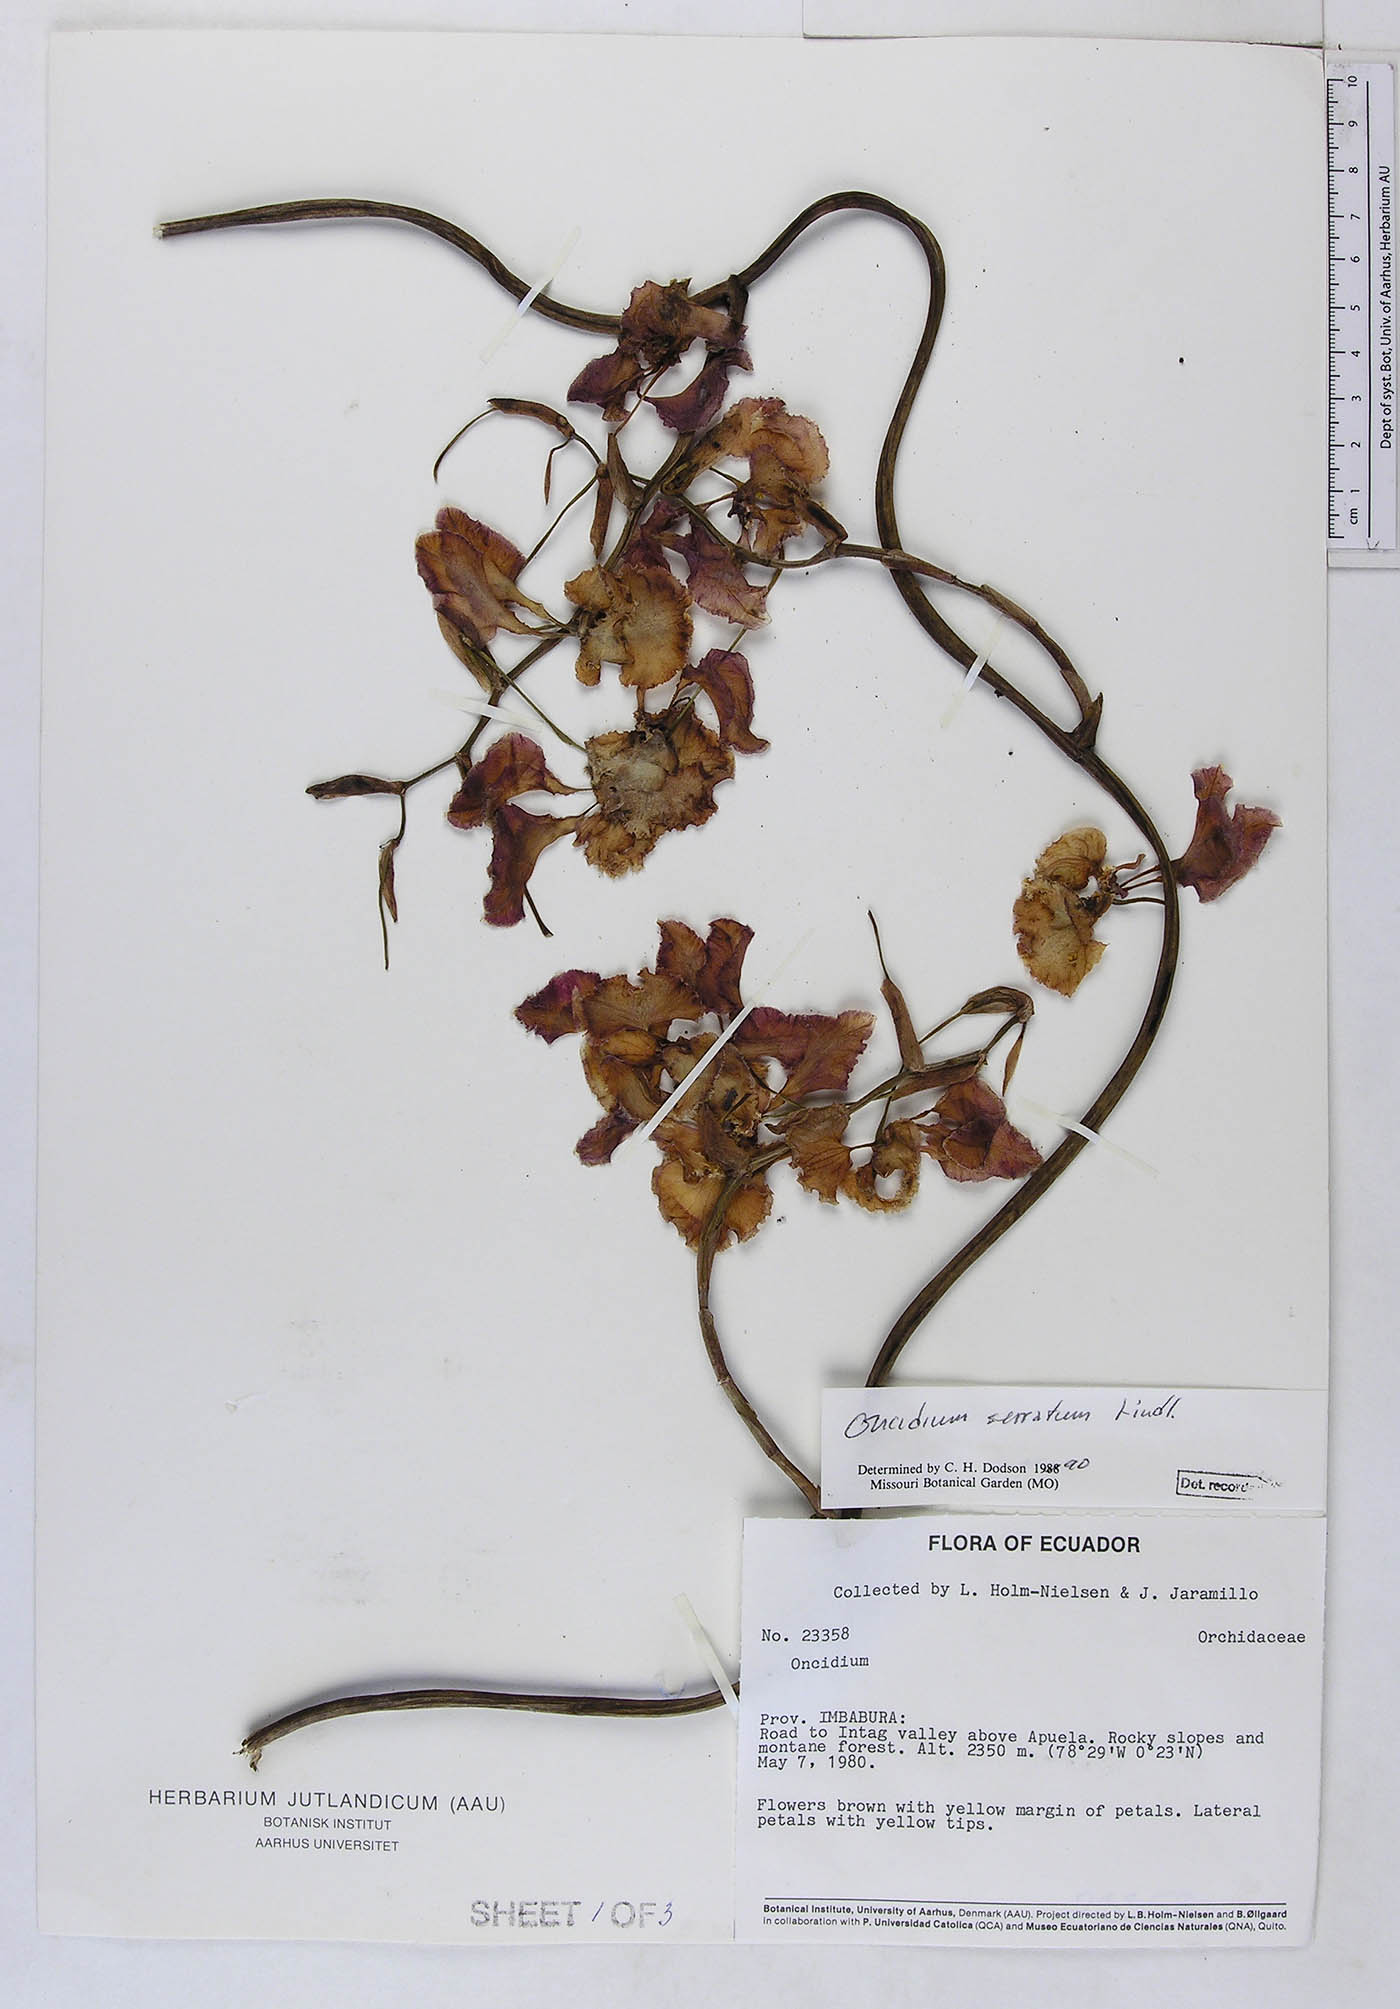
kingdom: Plantae
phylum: Tracheophyta
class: Liliopsida
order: Asparagales
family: Orchidaceae
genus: Cyrtochilum
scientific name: Cyrtochilum serratum
